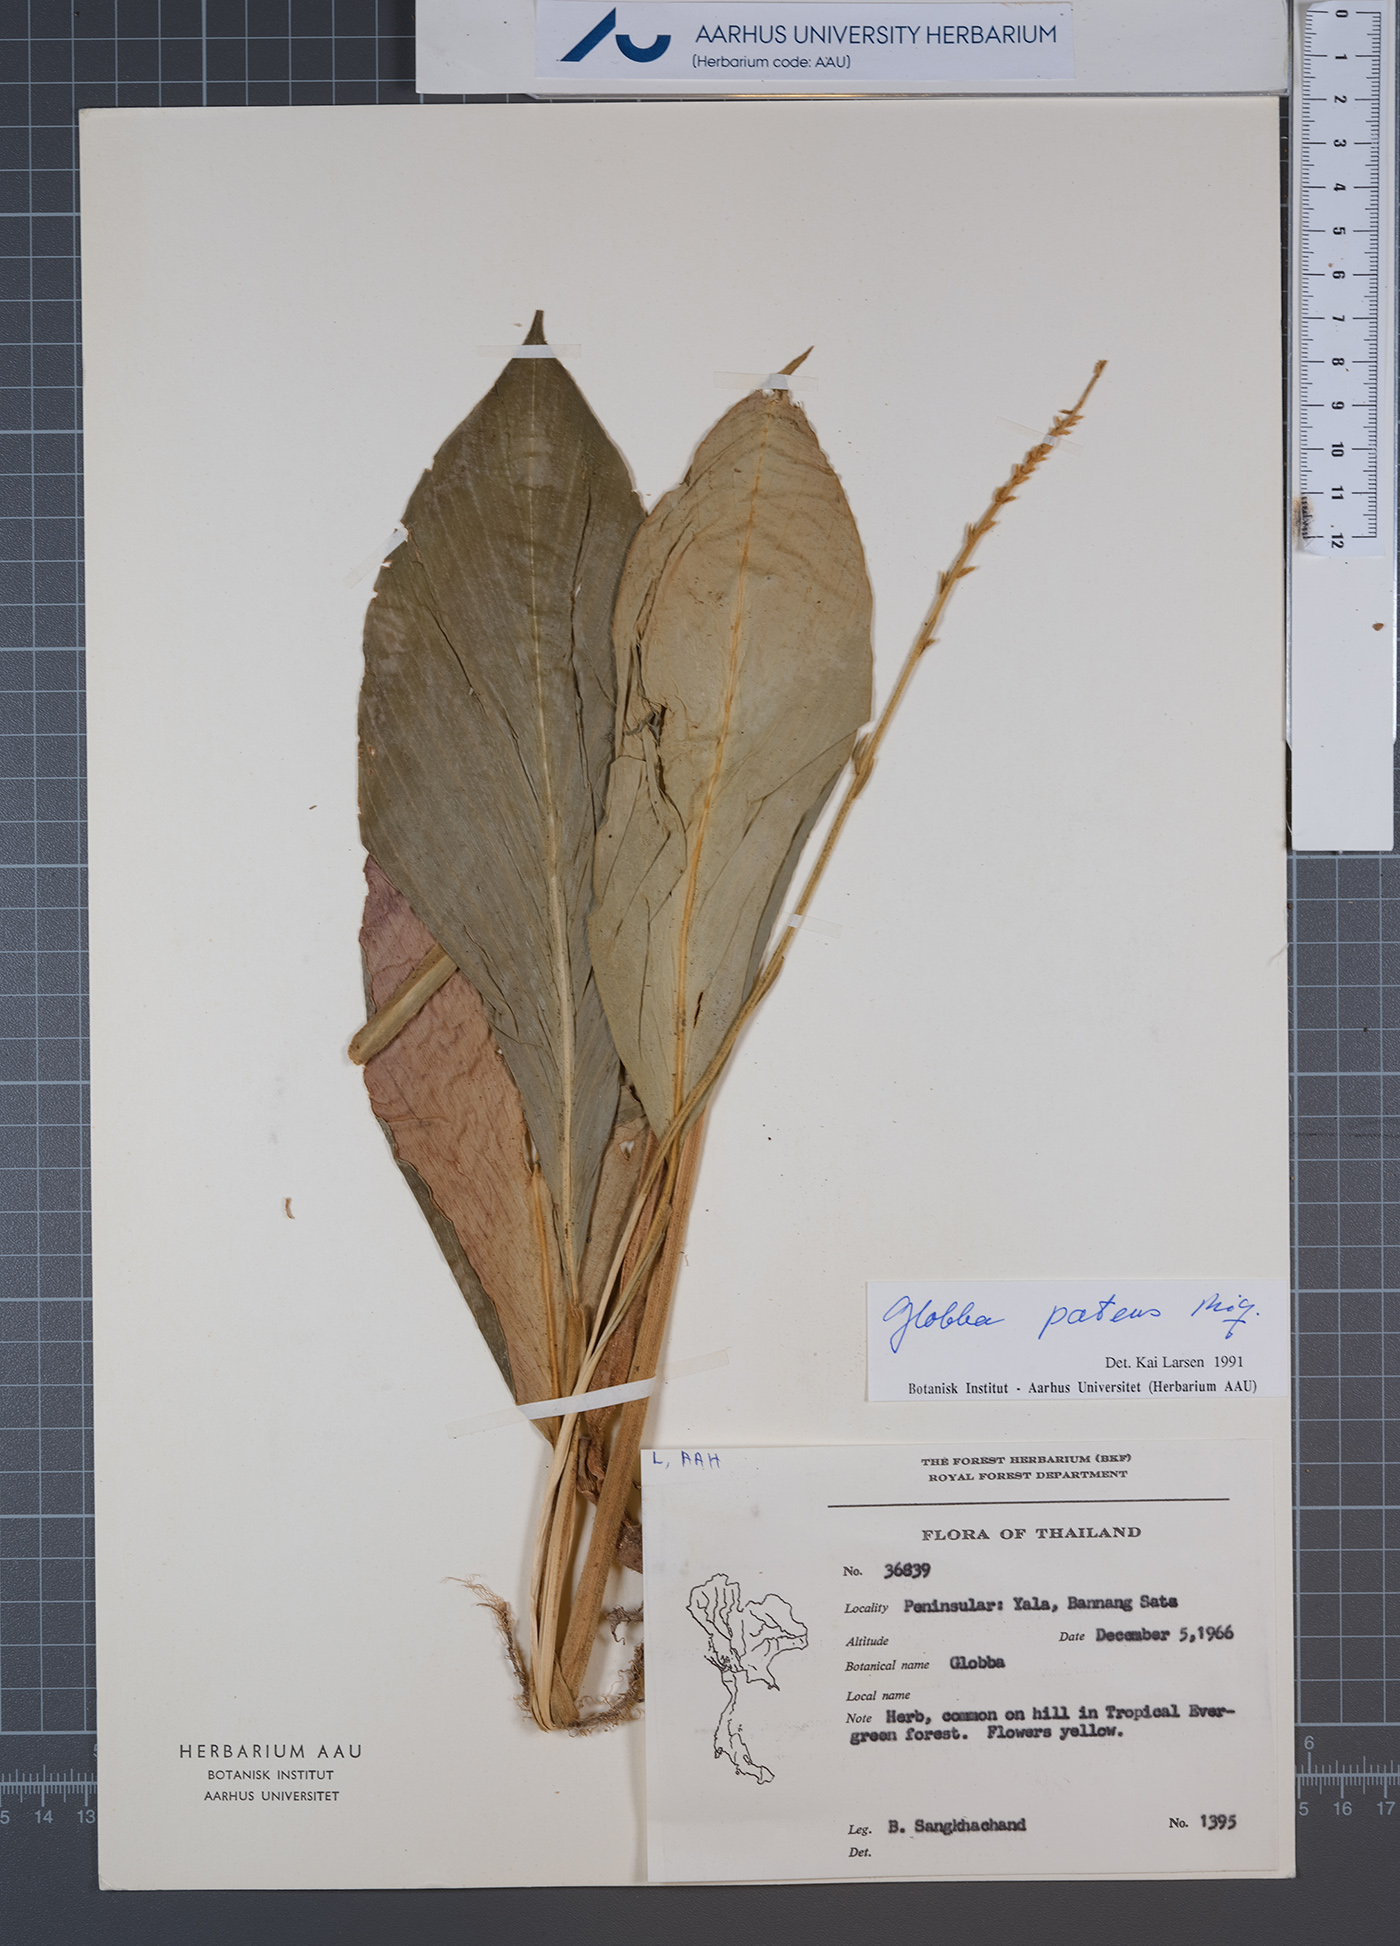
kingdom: Plantae
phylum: Tracheophyta
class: Liliopsida
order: Zingiberales
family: Zingiberaceae
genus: Globba
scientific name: Globba patens
